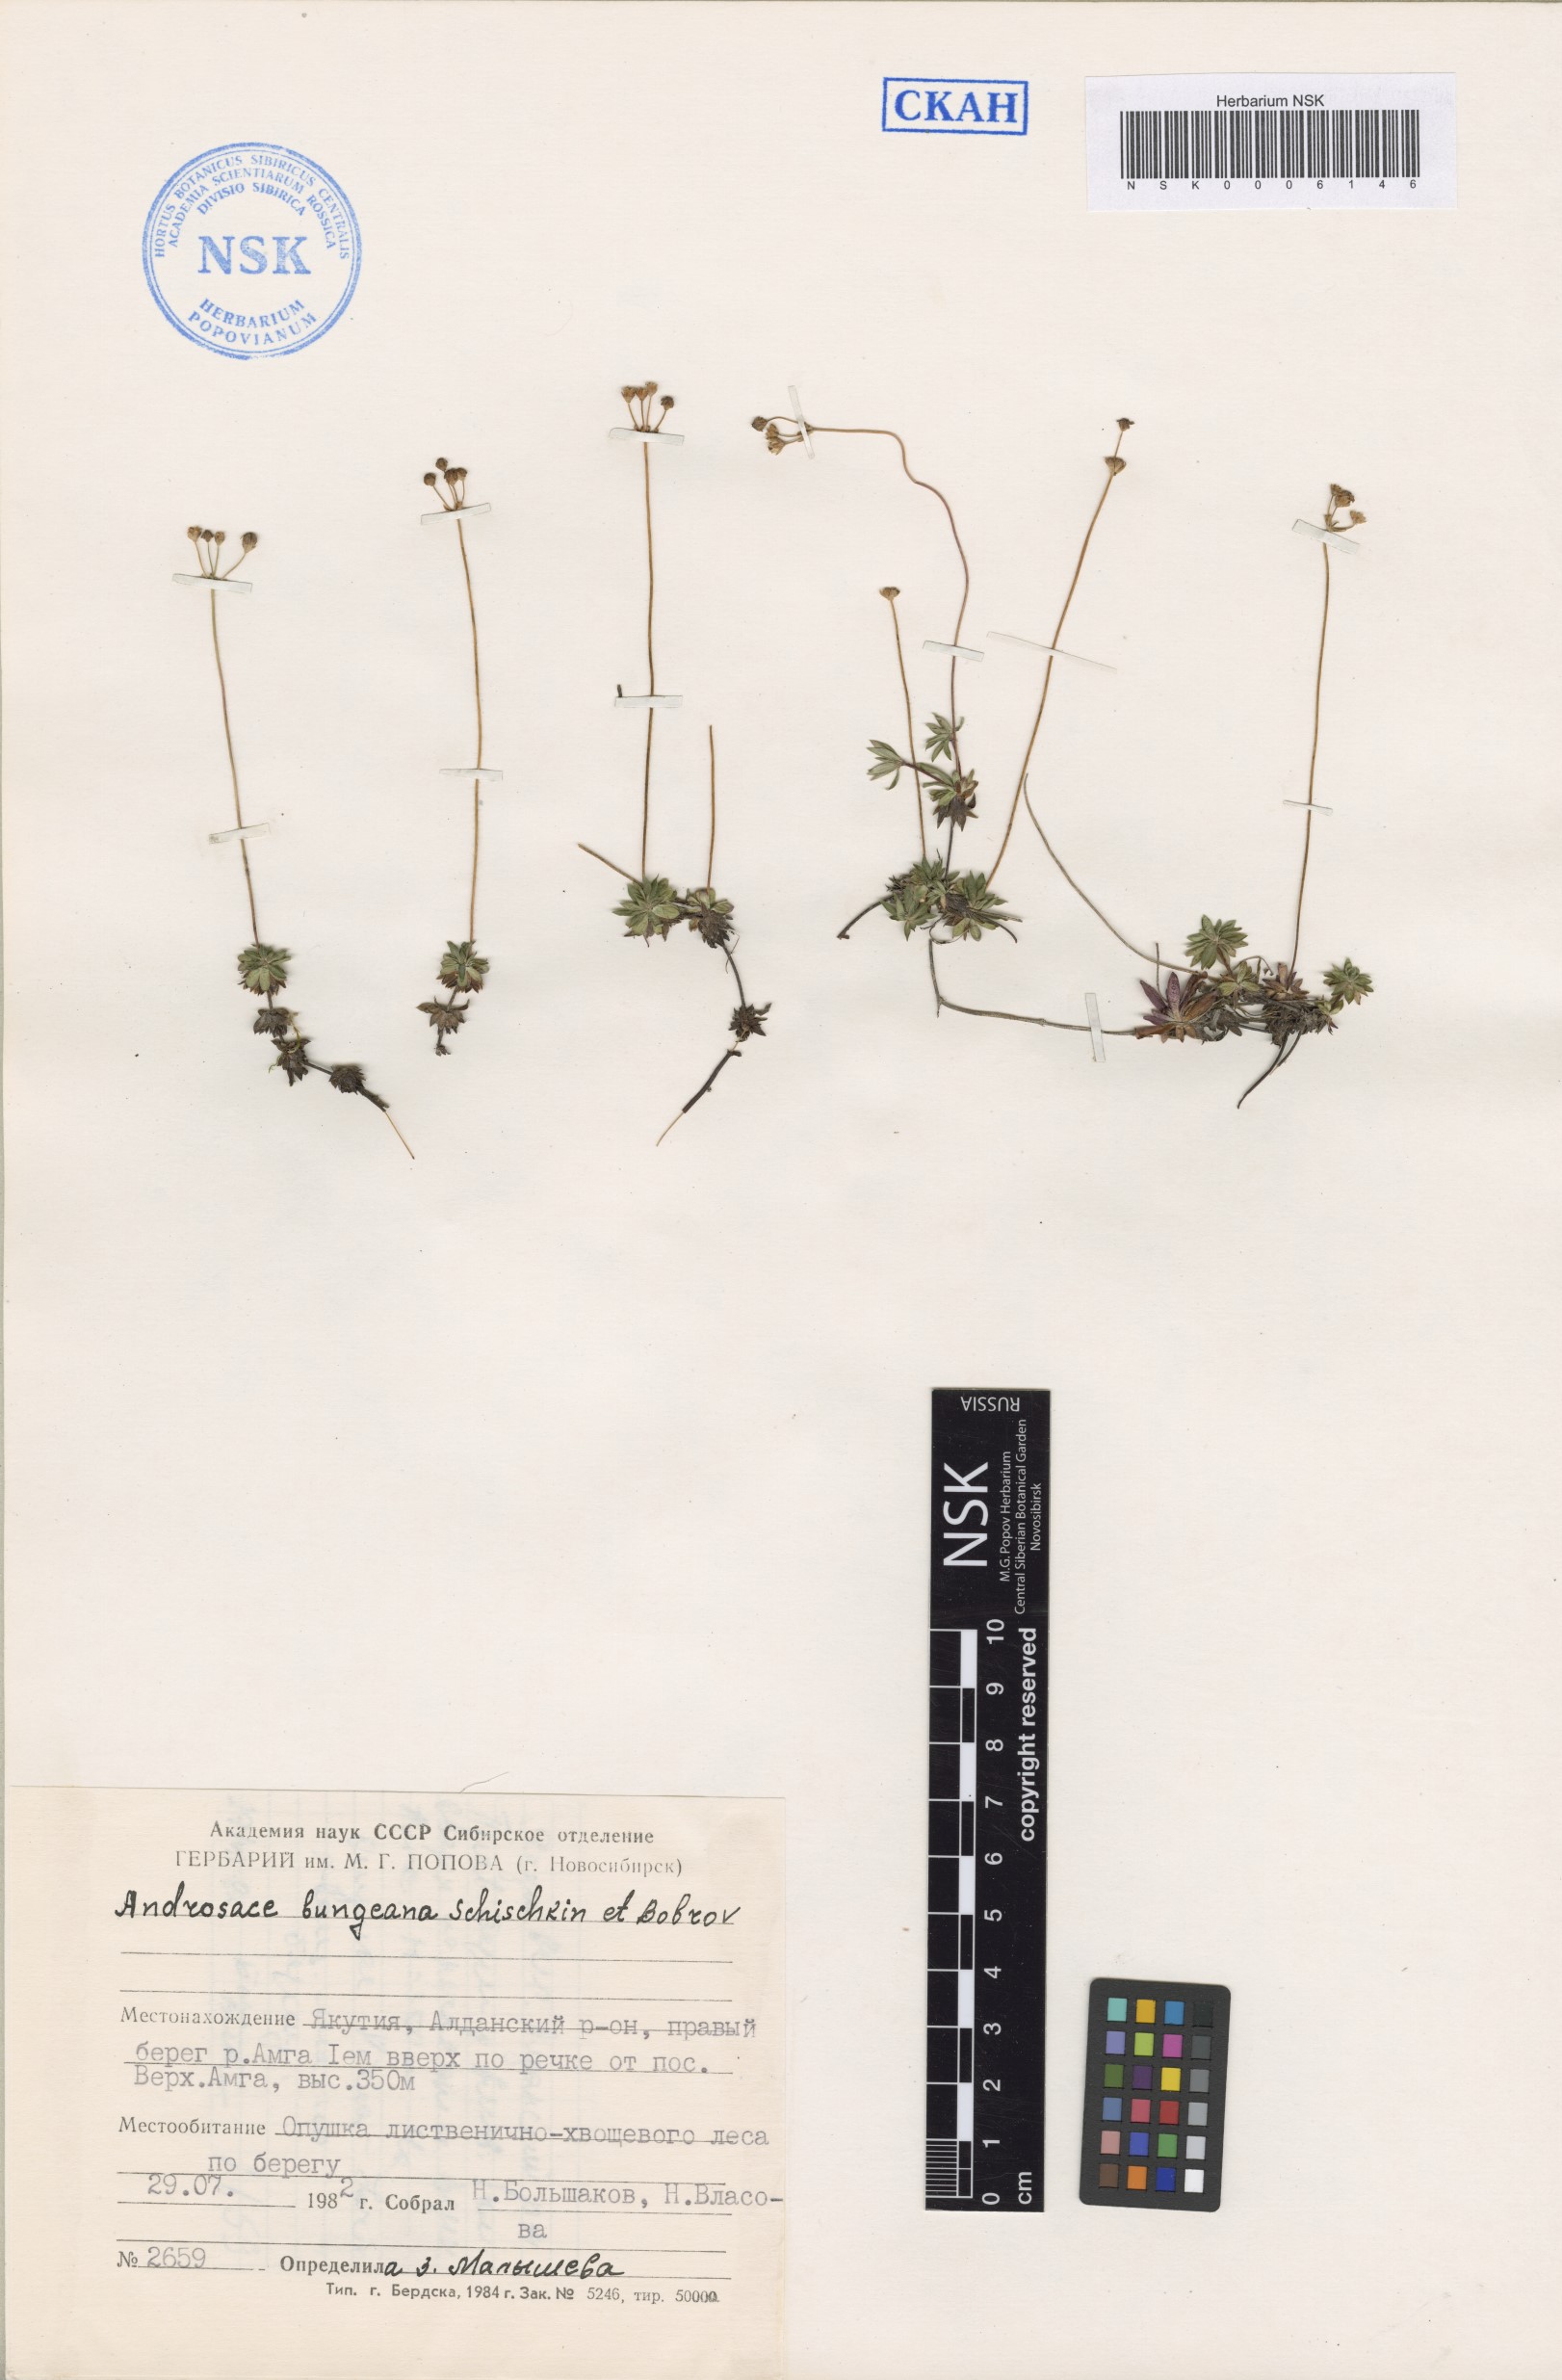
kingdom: Plantae
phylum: Tracheophyta
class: Magnoliopsida
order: Ericales
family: Primulaceae
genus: Androsace
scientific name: Androsace bungeana
